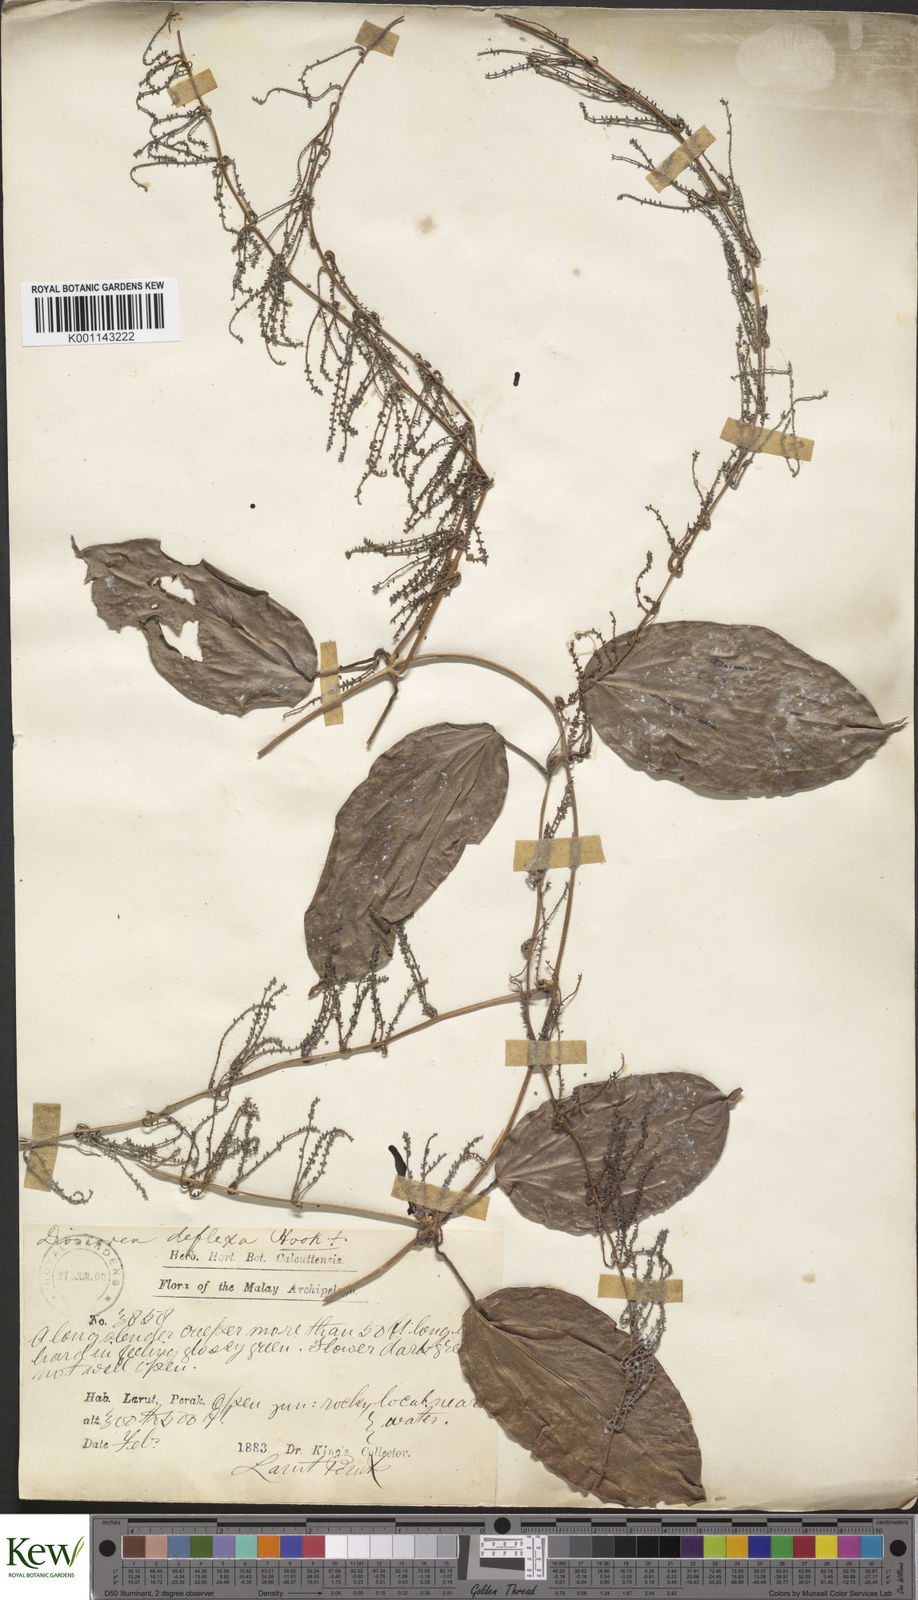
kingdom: Plantae
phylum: Tracheophyta
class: Liliopsida
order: Dioscoreales
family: Dioscoreaceae
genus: Dioscorea
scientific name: Dioscorea prainiana
